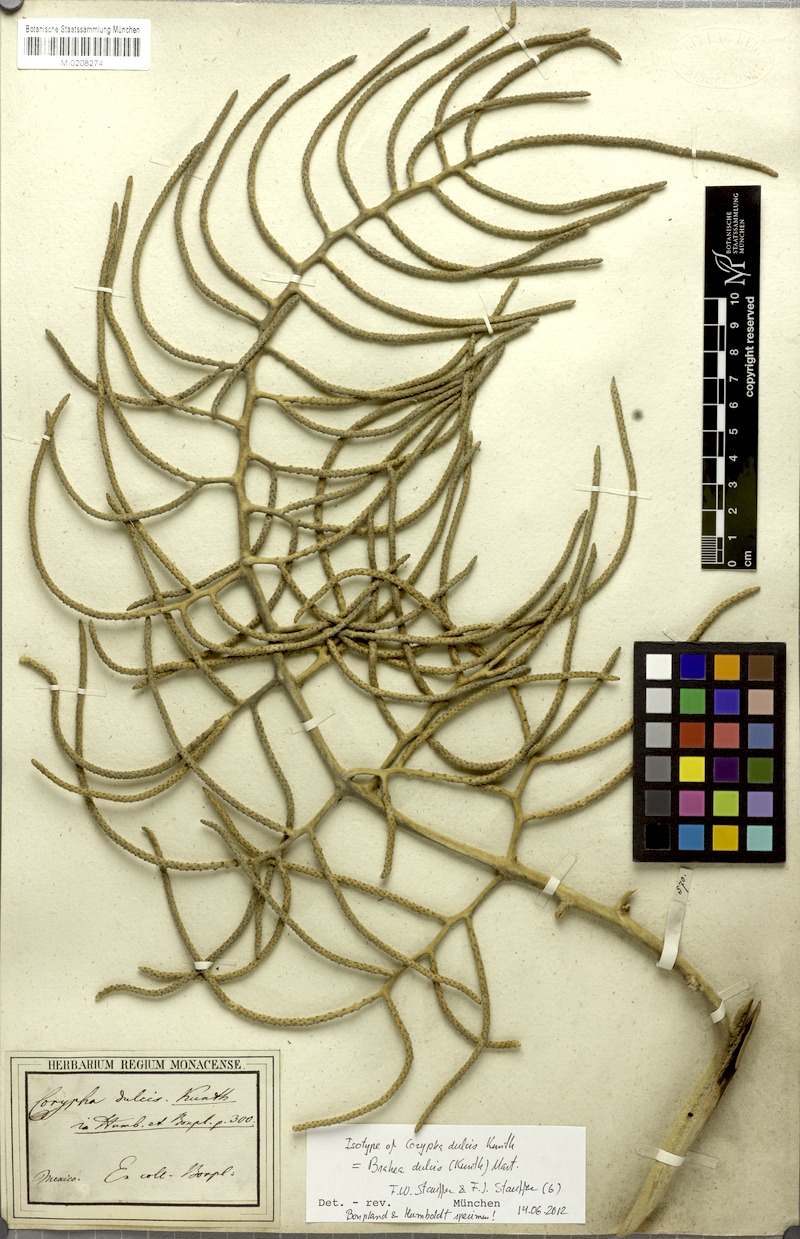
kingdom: Plantae
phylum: Tracheophyta
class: Liliopsida
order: Arecales
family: Arecaceae
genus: Brahea
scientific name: Brahea dulcis
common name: Apak palm
